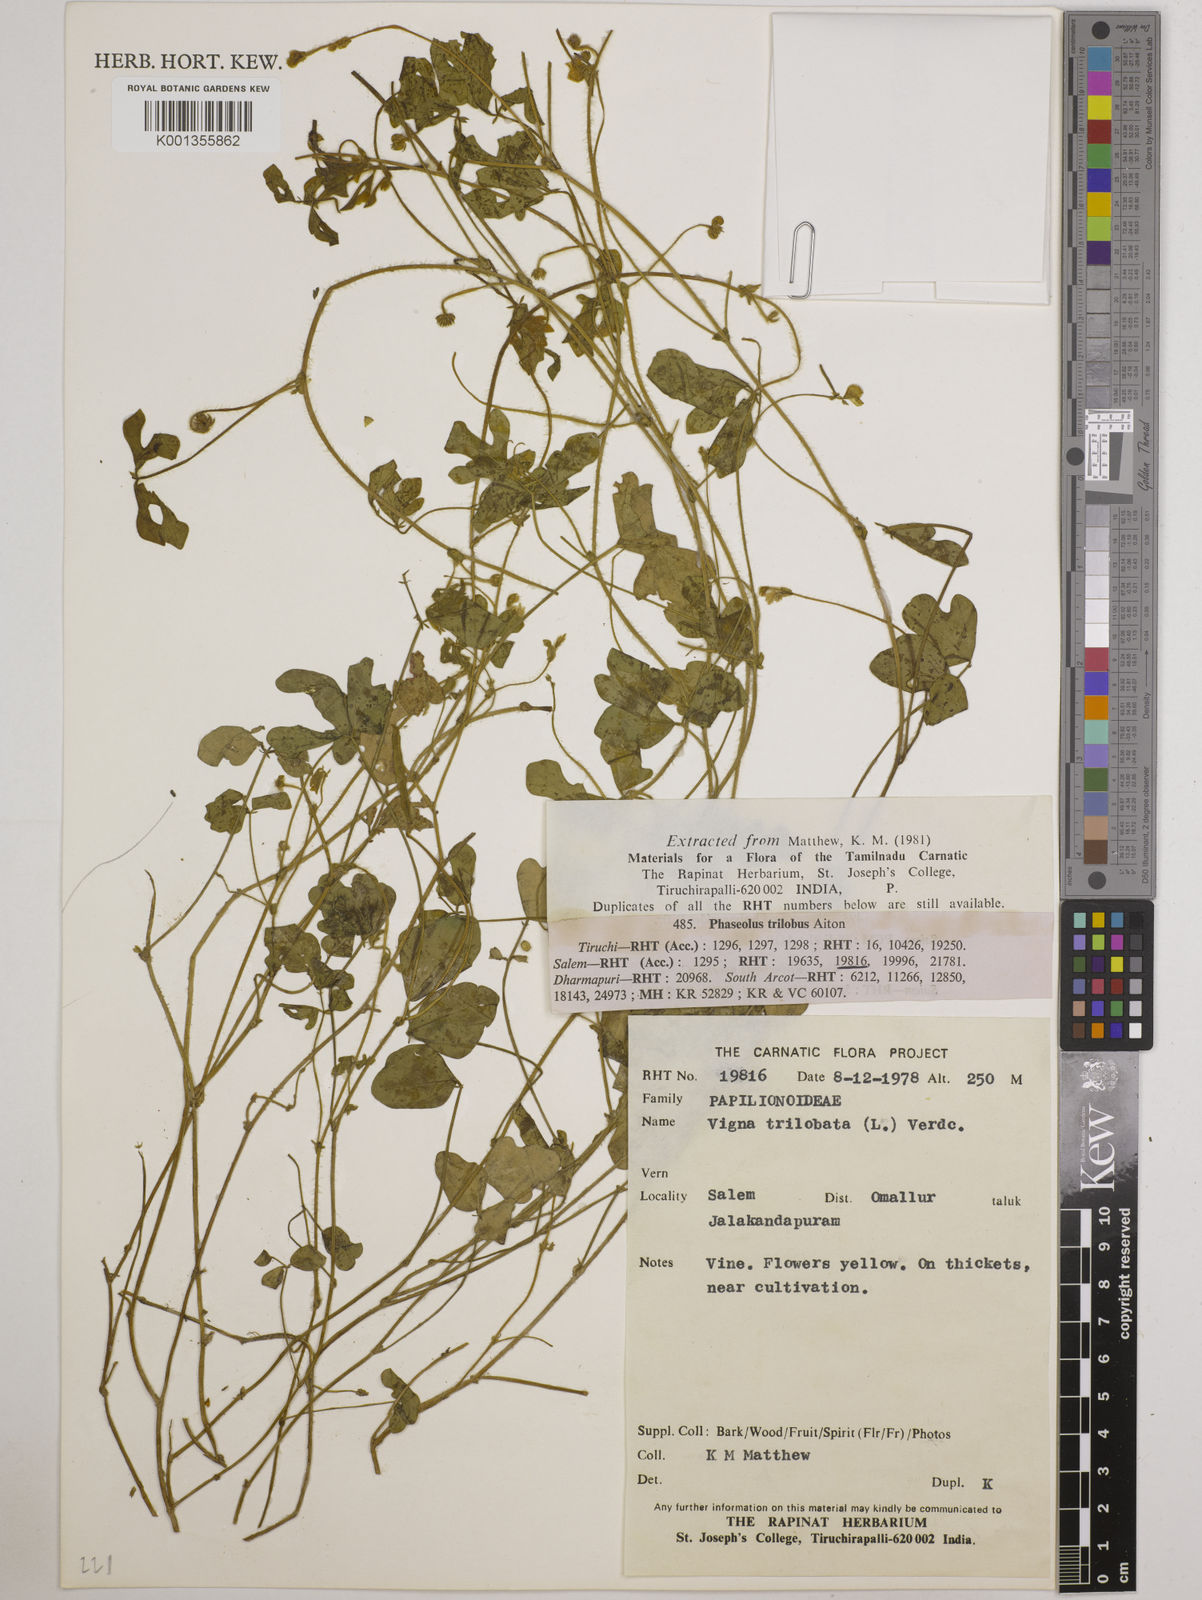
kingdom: Plantae
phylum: Tracheophyta
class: Magnoliopsida
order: Fabales
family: Fabaceae
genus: Vigna
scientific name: Vigna trilobata
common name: Jungli-bean
